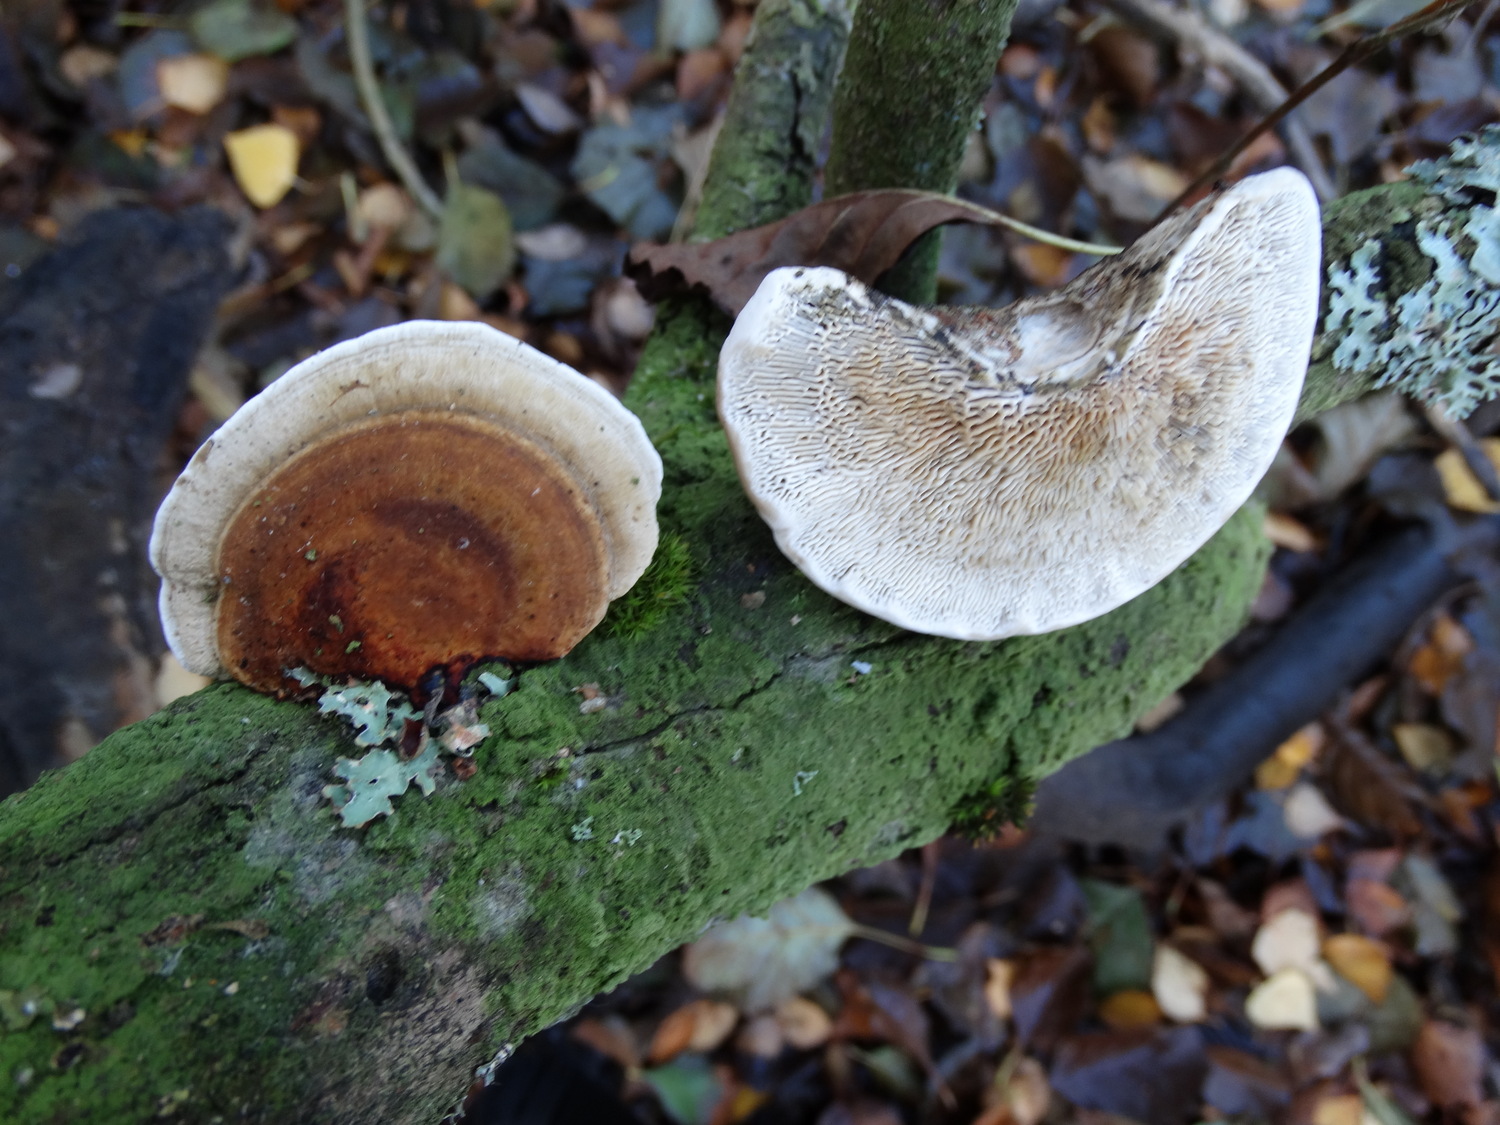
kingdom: Fungi
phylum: Basidiomycota
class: Agaricomycetes
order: Polyporales
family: Polyporaceae
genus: Daedaleopsis
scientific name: Daedaleopsis confragosa
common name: rødmende læderporesvamp
